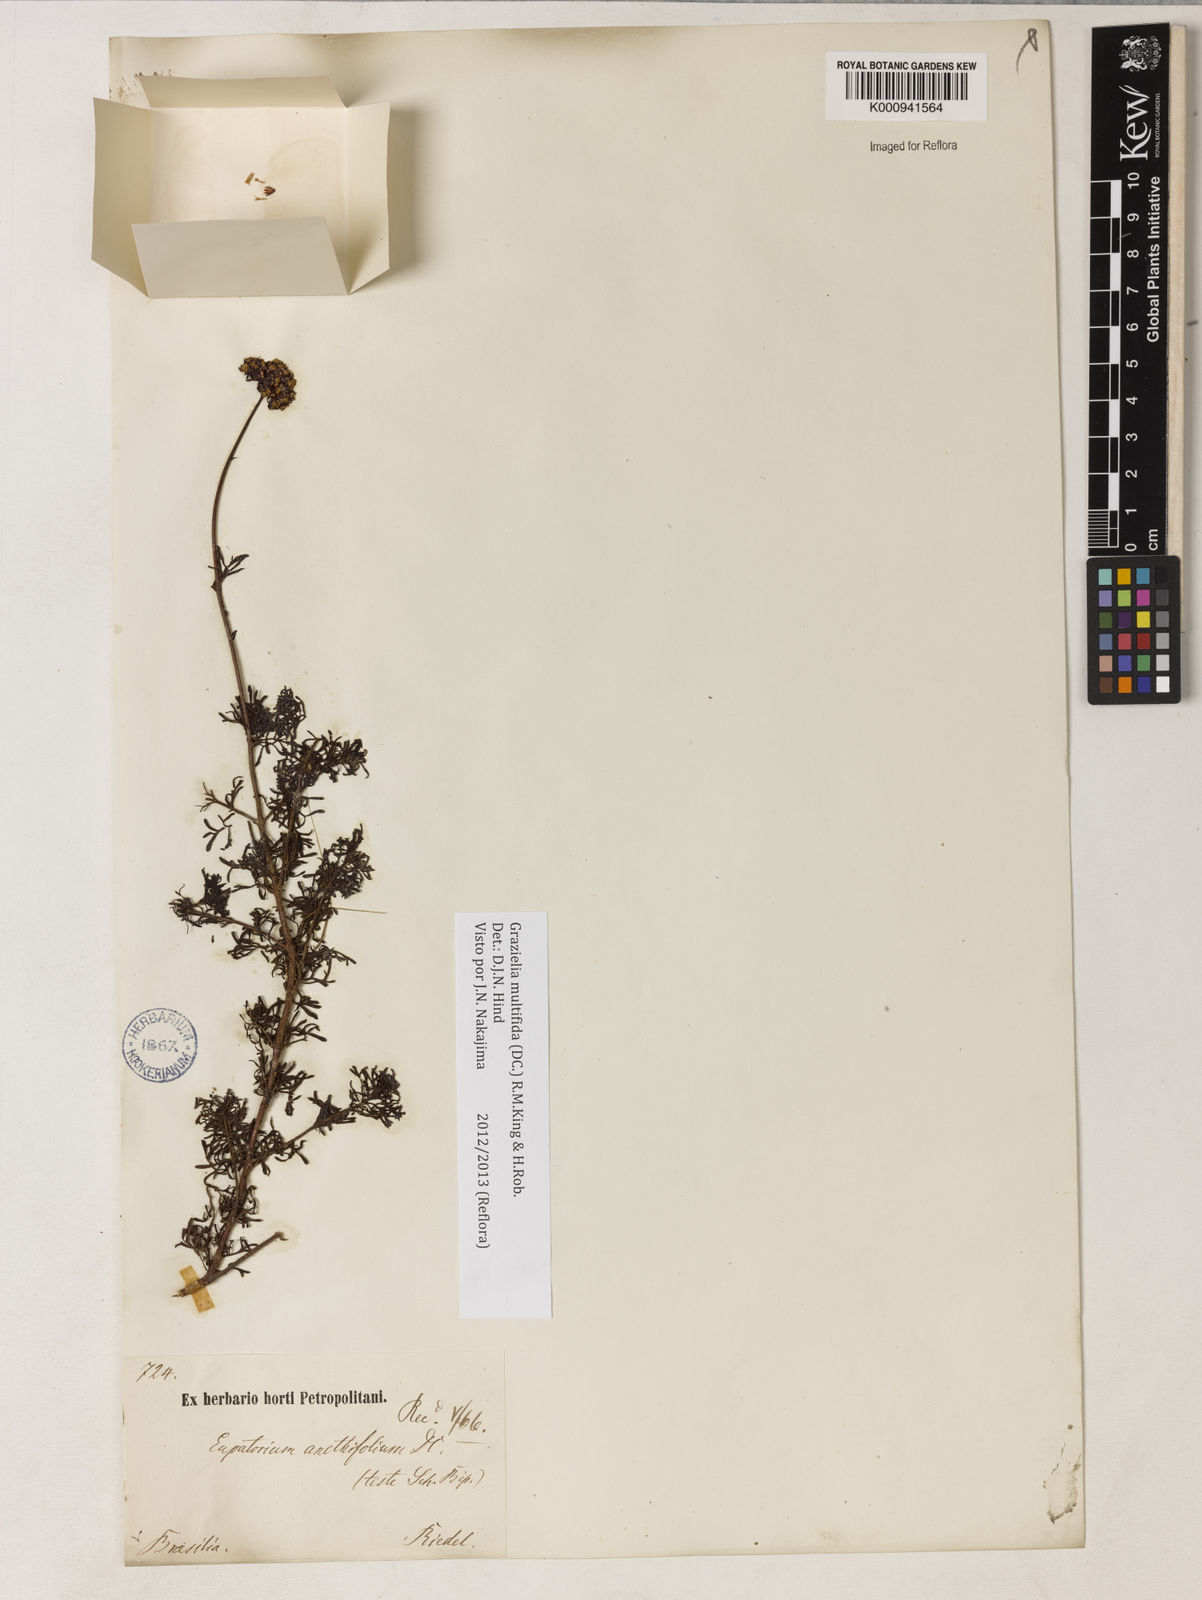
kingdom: Plantae
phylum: Tracheophyta
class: Magnoliopsida
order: Asterales
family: Asteraceae
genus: Grazielia
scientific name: Grazielia multifida
